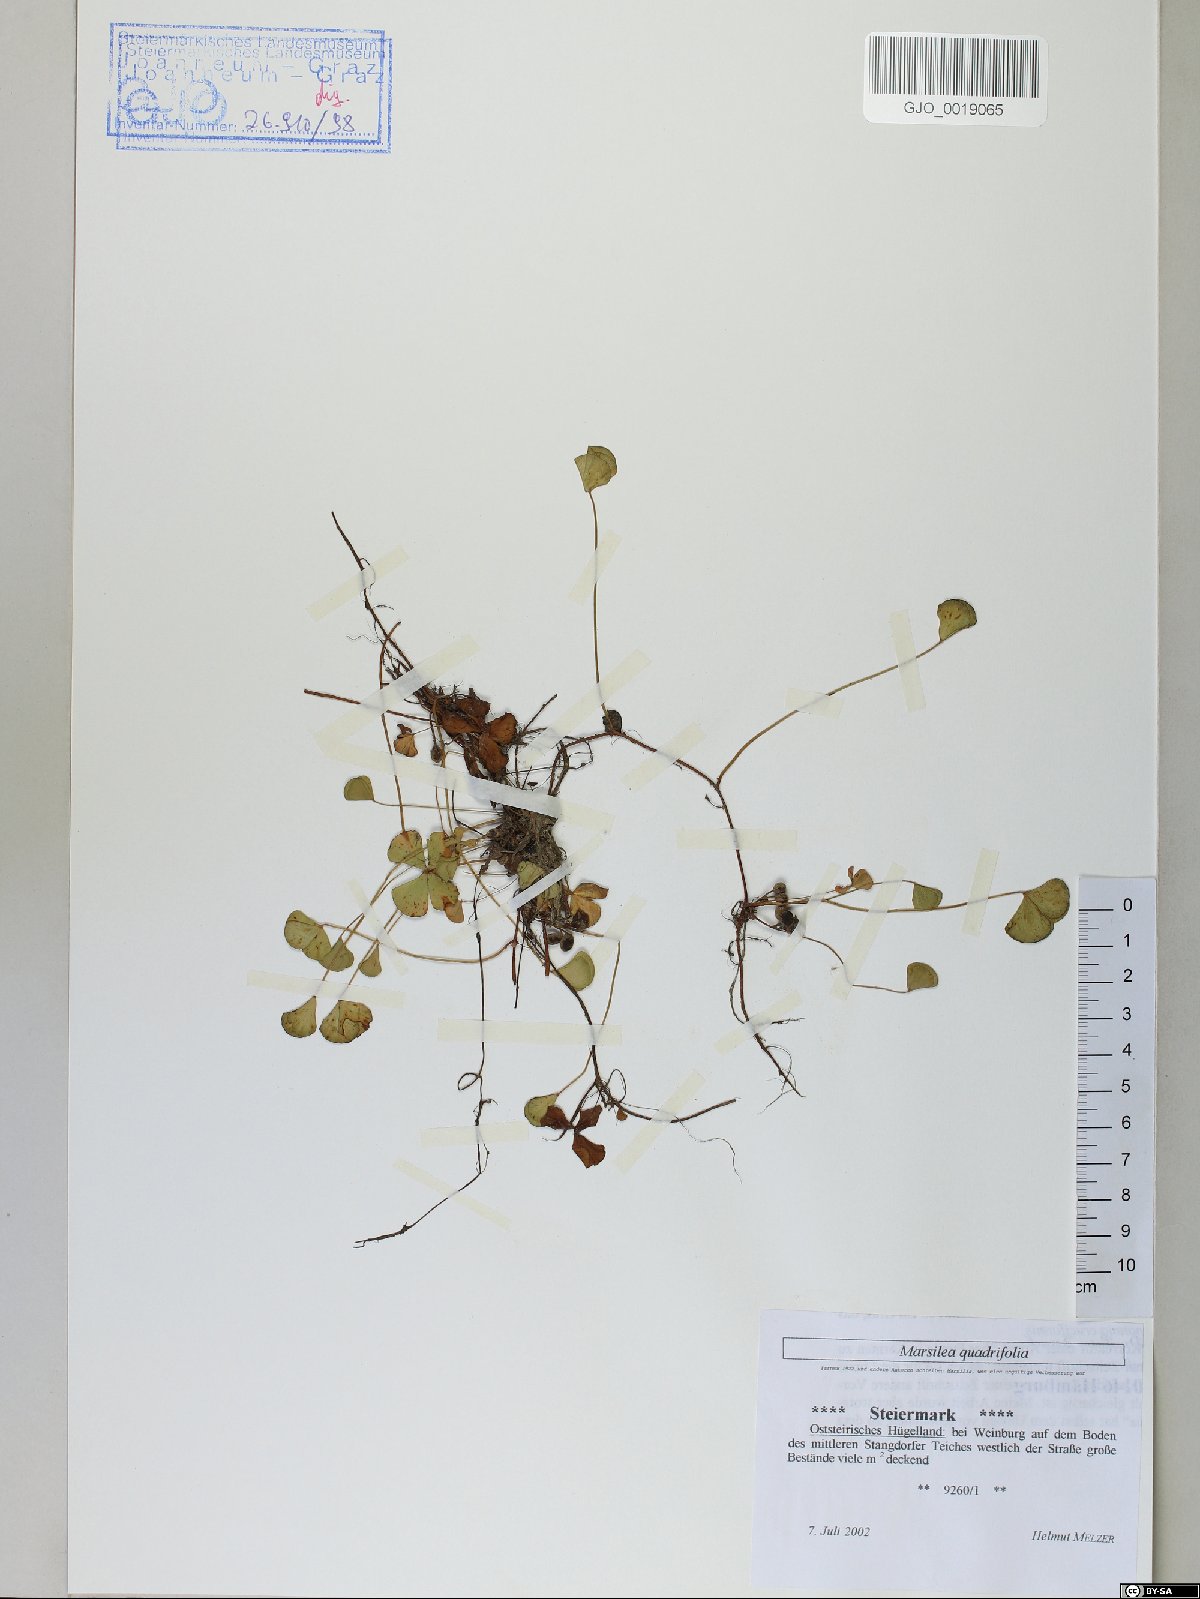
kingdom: Plantae
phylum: Tracheophyta
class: Polypodiopsida
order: Salviniales
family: Marsileaceae
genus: Marsilea
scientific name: Marsilea quadrifolia
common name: Water shamrock
